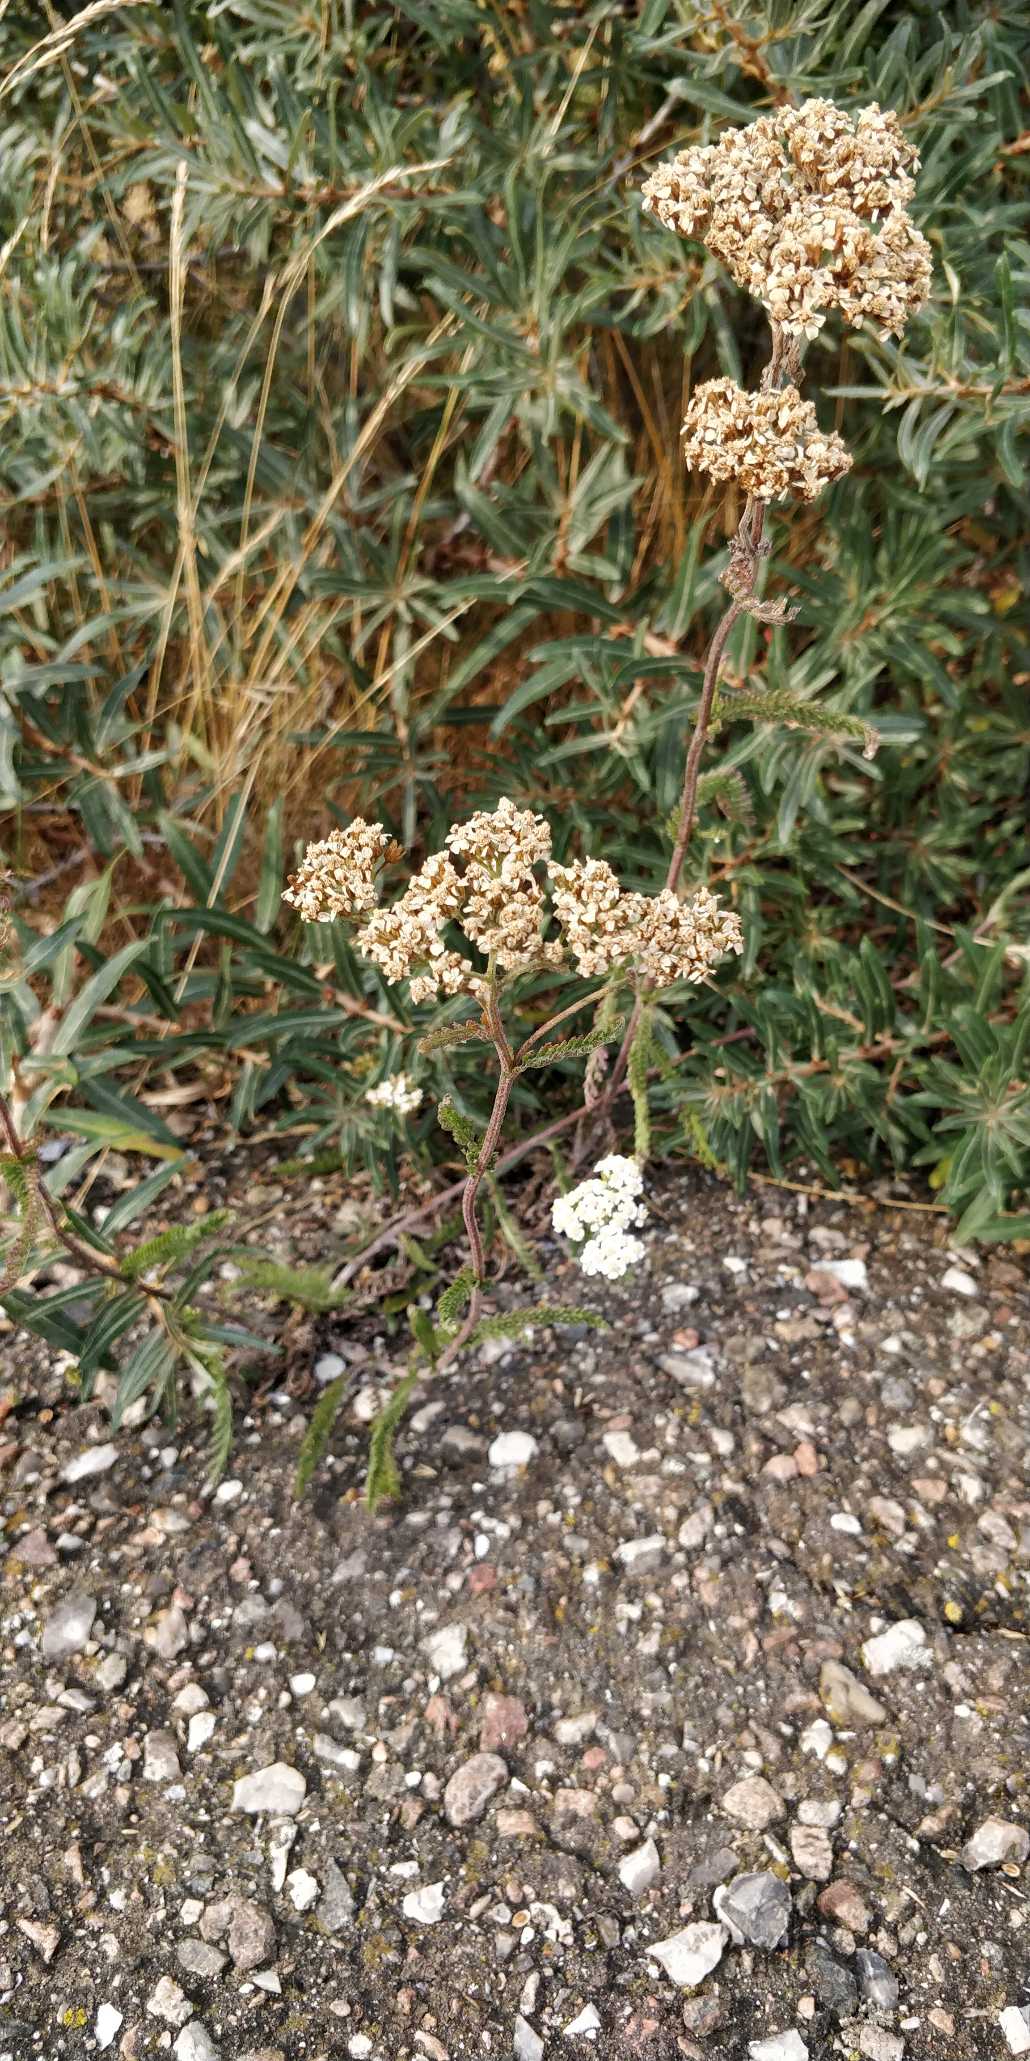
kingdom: Plantae
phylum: Tracheophyta
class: Magnoliopsida
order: Asterales
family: Asteraceae
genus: Achillea
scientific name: Achillea millefolium
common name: Almindelig røllike
